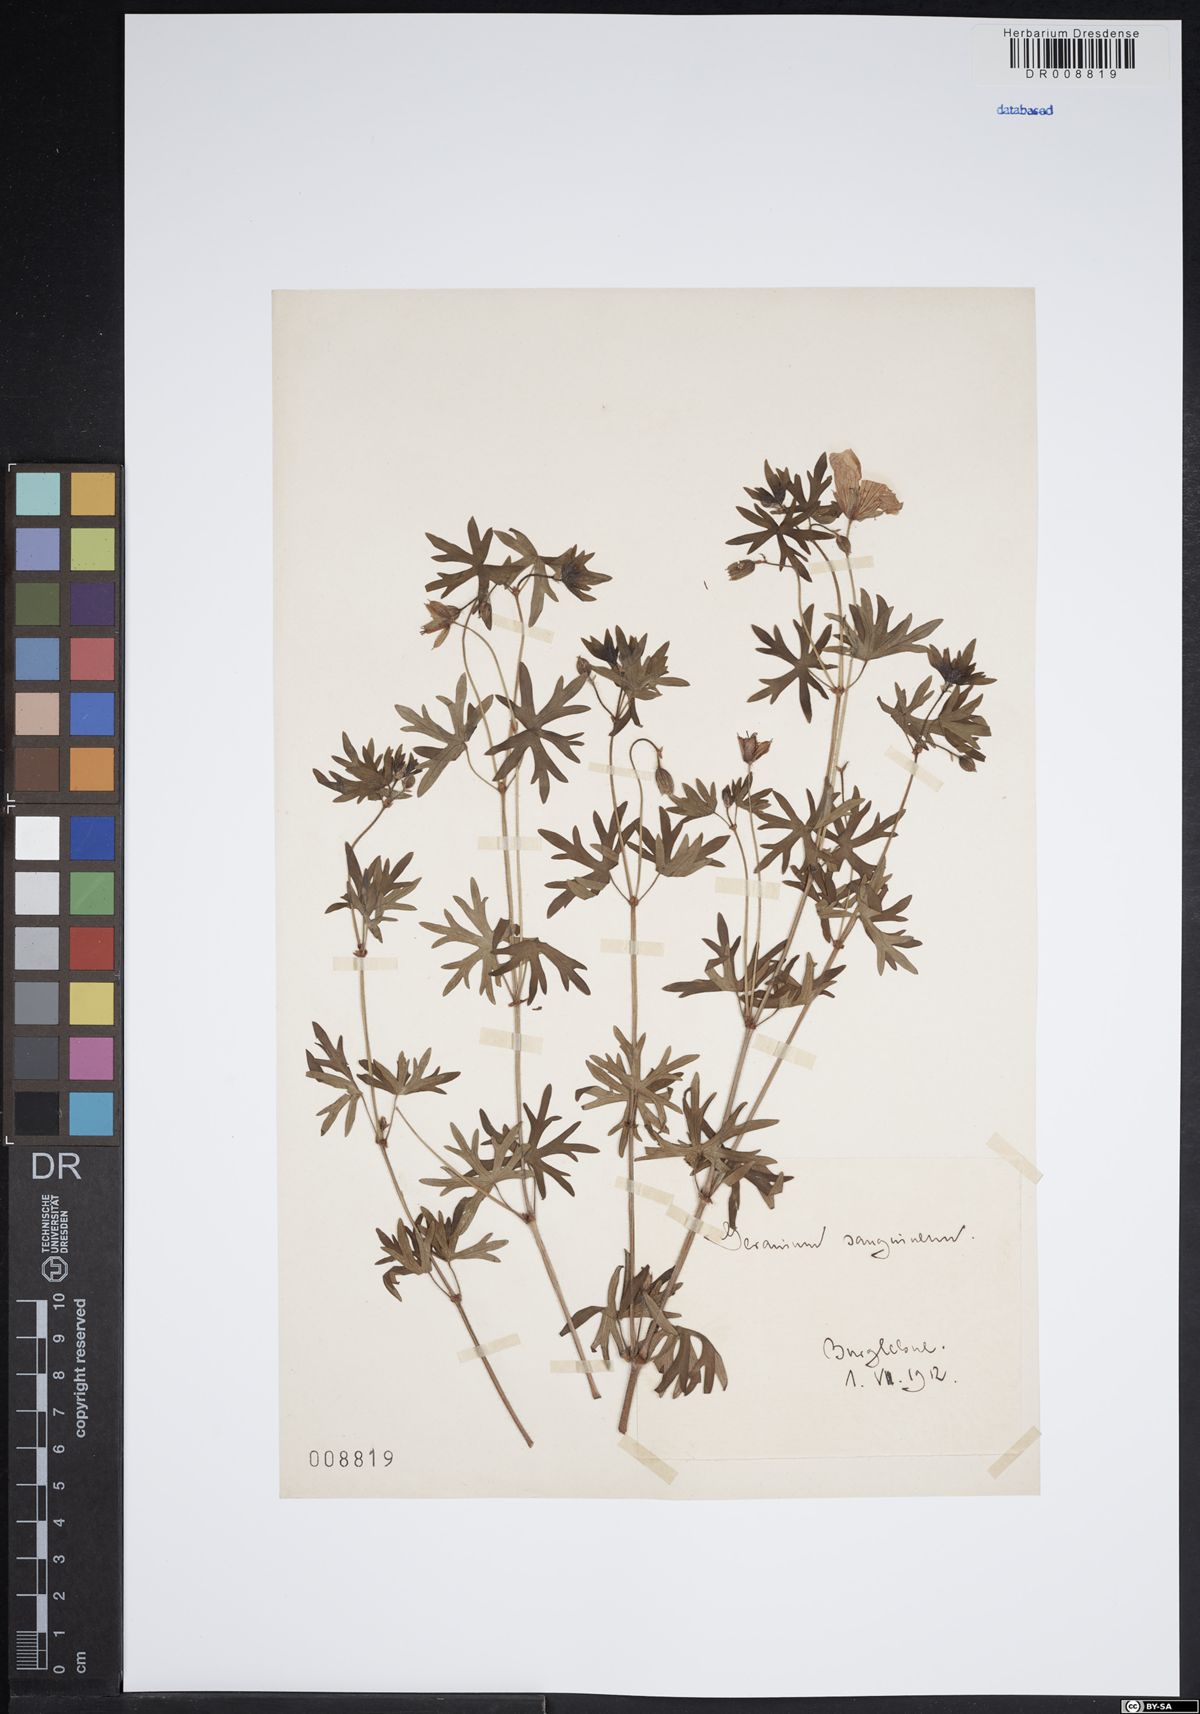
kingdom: Plantae
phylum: Tracheophyta
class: Magnoliopsida
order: Geraniales
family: Geraniaceae
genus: Geranium
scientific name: Geranium sanguineum
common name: Bloody crane's-bill
